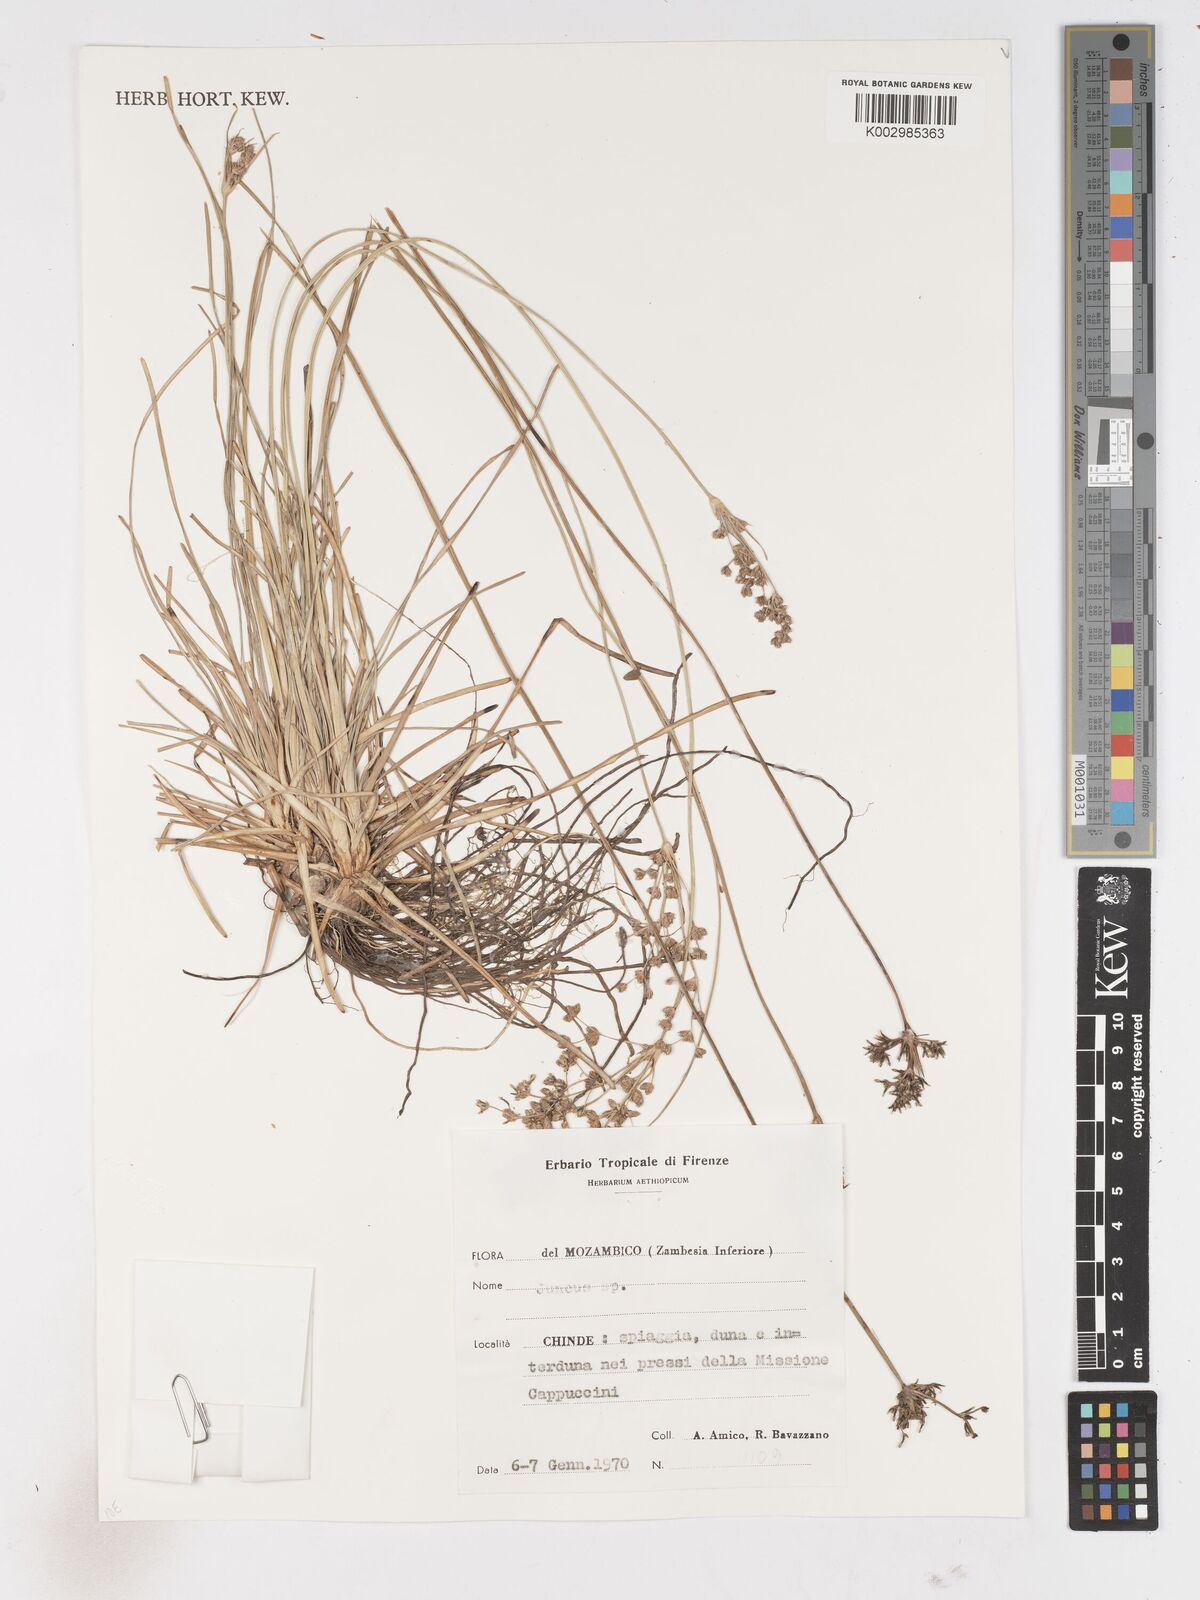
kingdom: Plantae
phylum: Tracheophyta
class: Liliopsida
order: Poales
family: Cyperaceae
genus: Fimbristylis
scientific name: Fimbristylis cymosa
